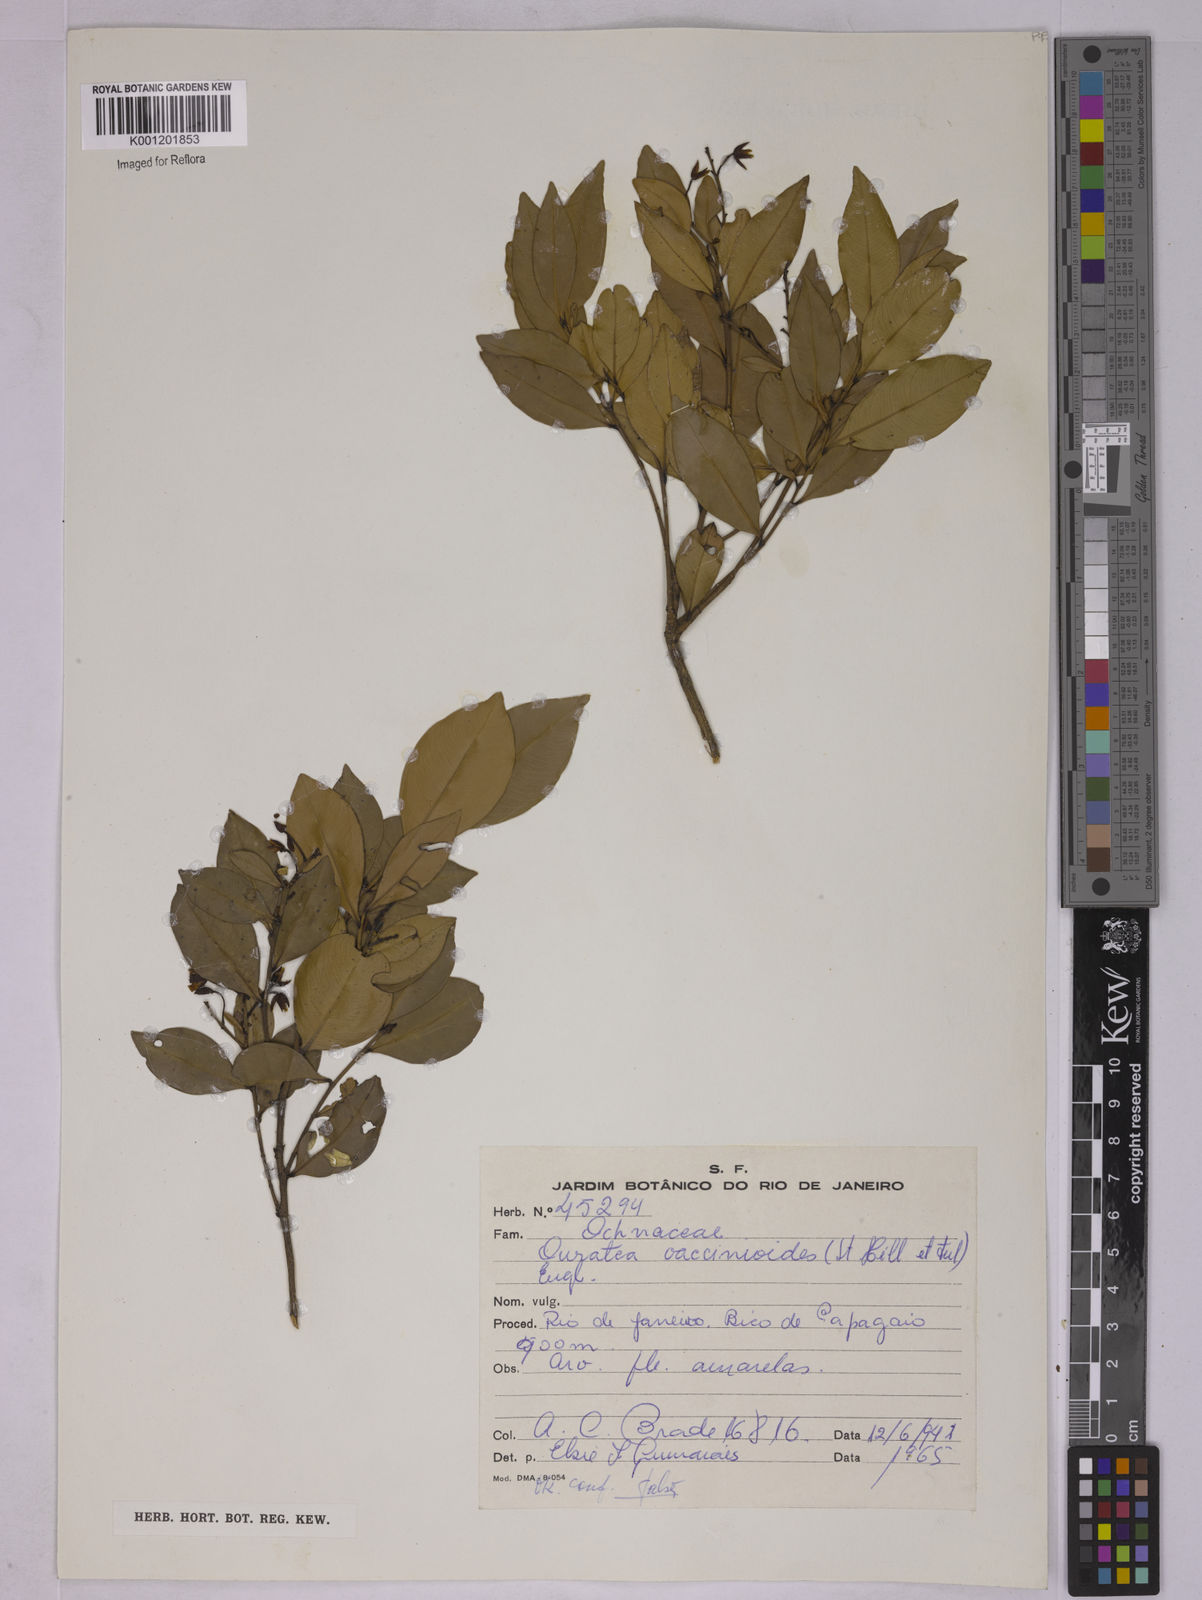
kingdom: Plantae
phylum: Tracheophyta
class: Magnoliopsida
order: Malpighiales
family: Ochnaceae
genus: Ouratea
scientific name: Ouratea vaccinioides
